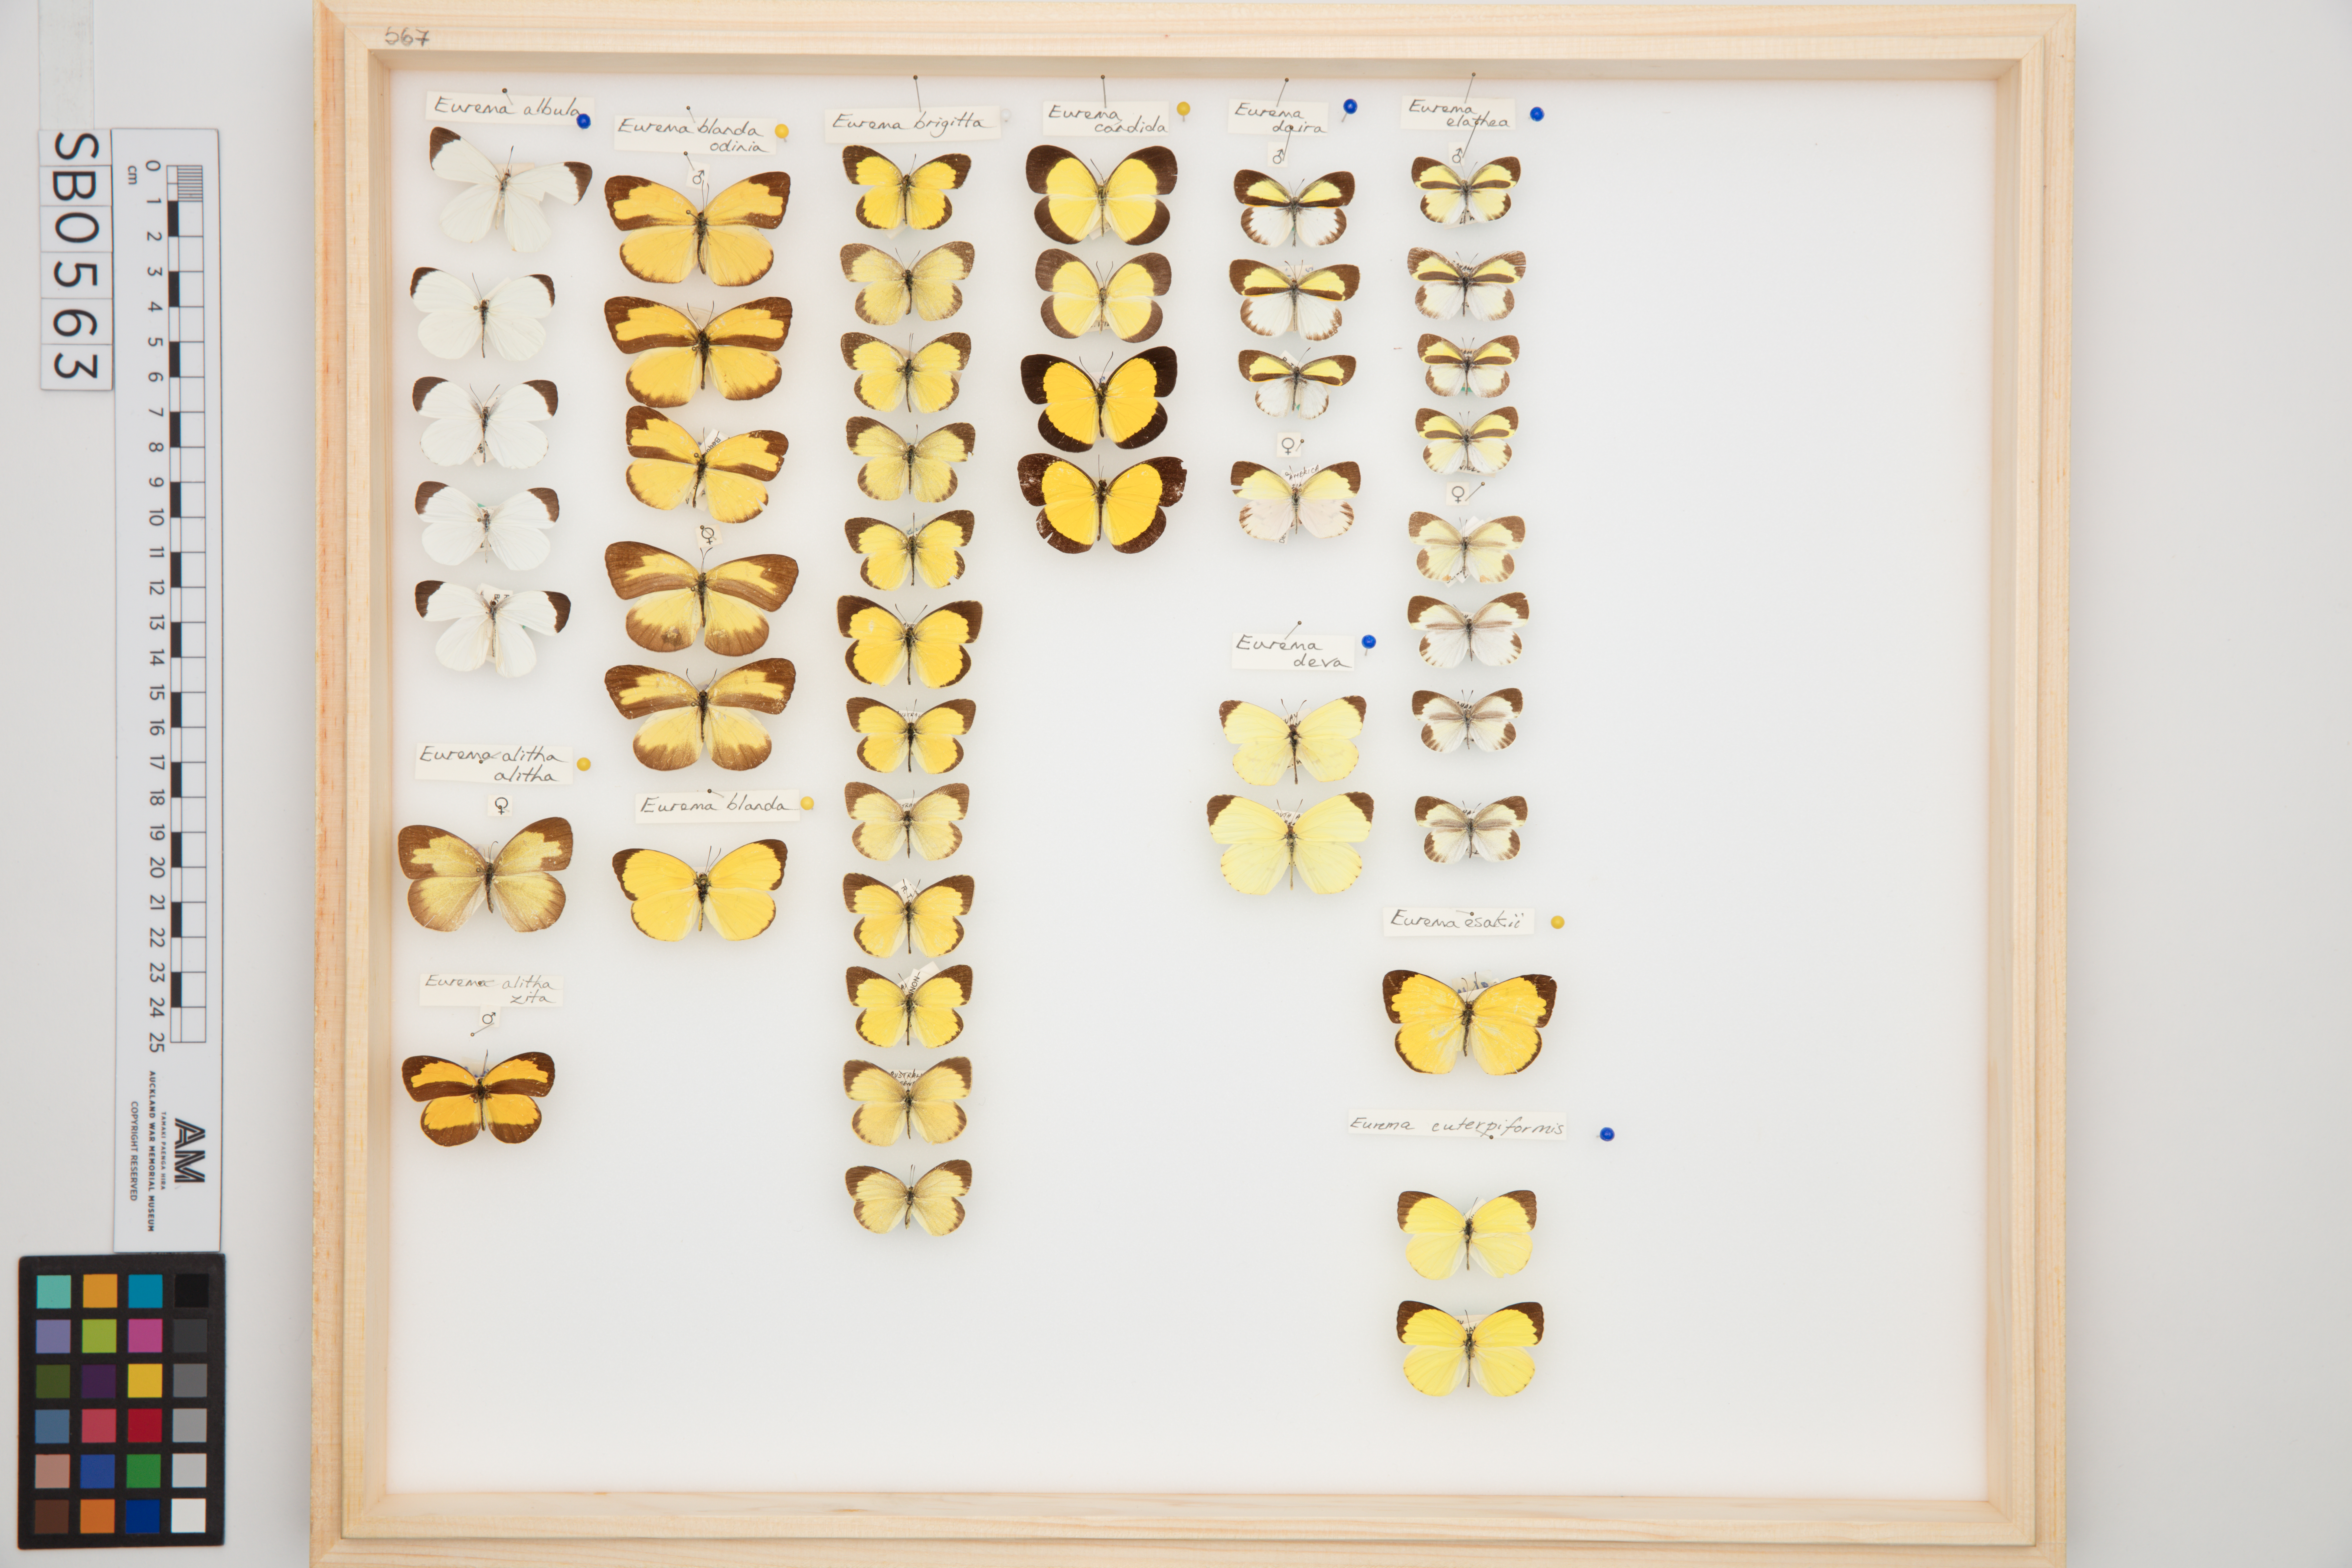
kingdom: Animalia
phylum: Arthropoda
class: Insecta
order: Lepidoptera
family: Pieridae
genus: Eurema
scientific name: Eurema albula
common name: White yellow
